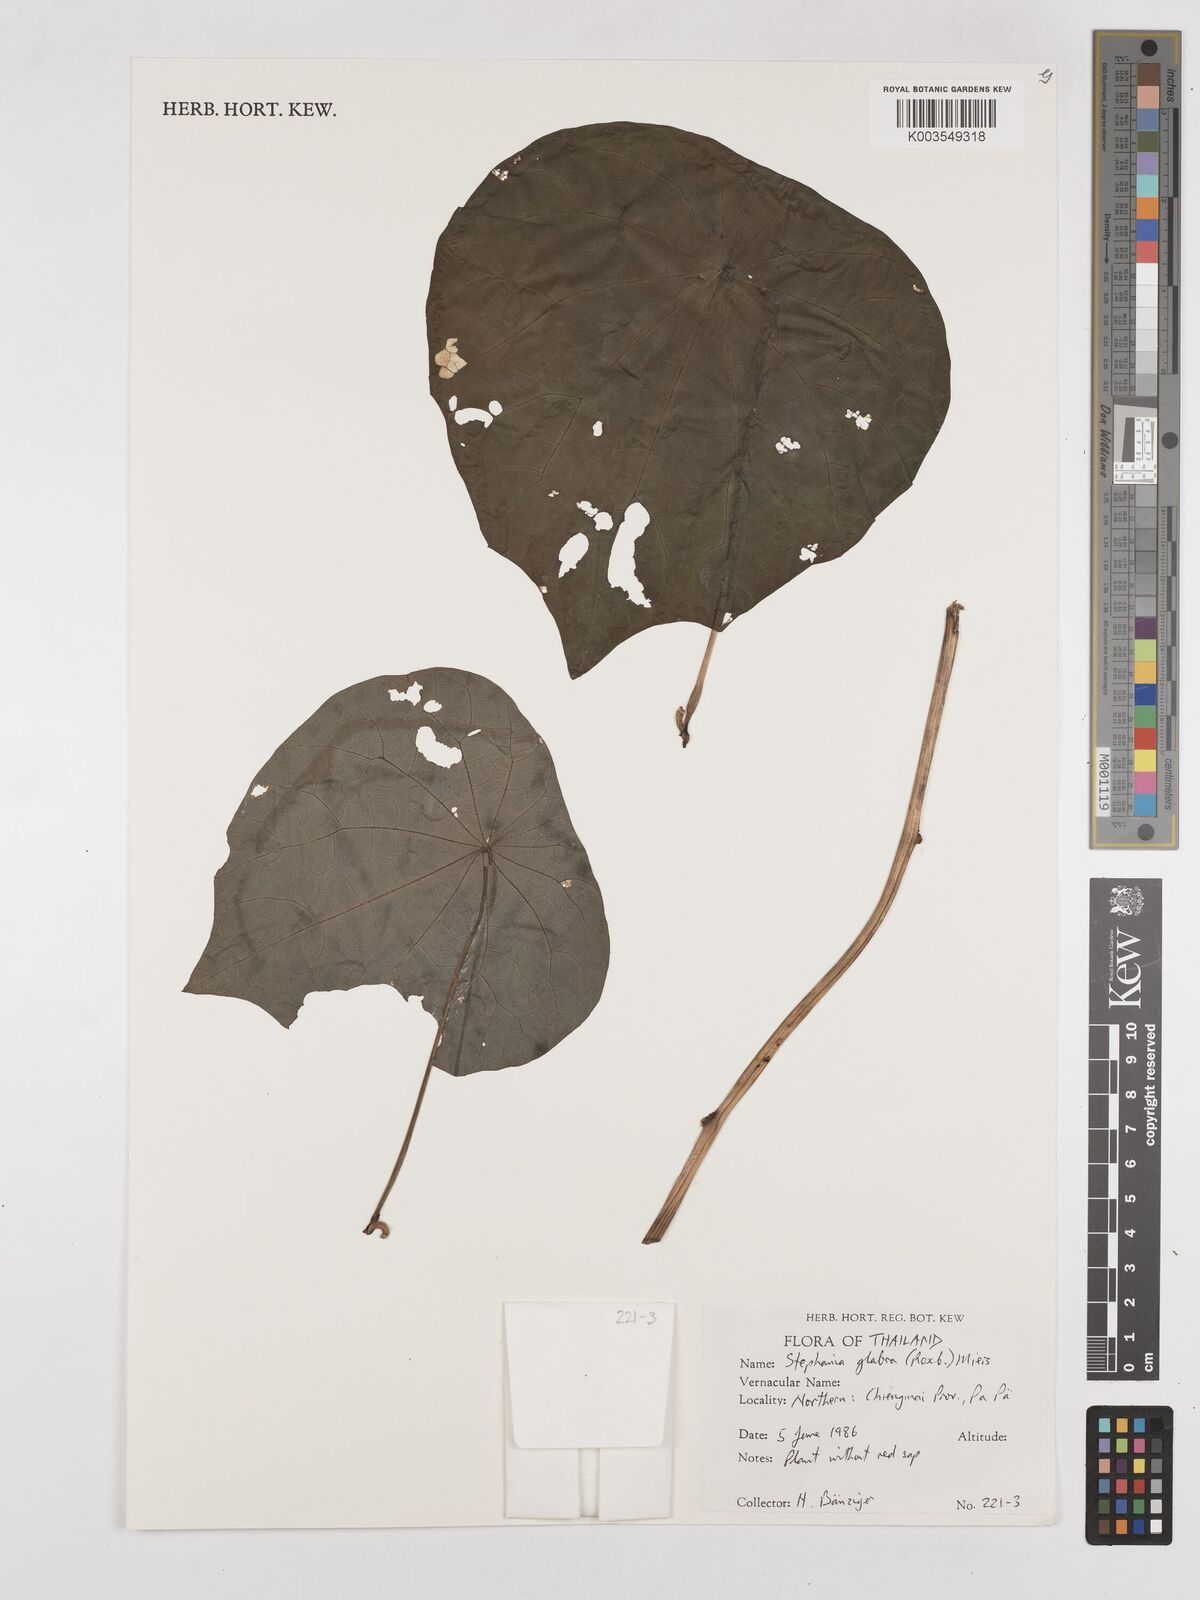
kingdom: Plantae
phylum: Tracheophyta
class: Magnoliopsida
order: Ranunculales
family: Menispermaceae
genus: Stephania
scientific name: Stephania rotunda
